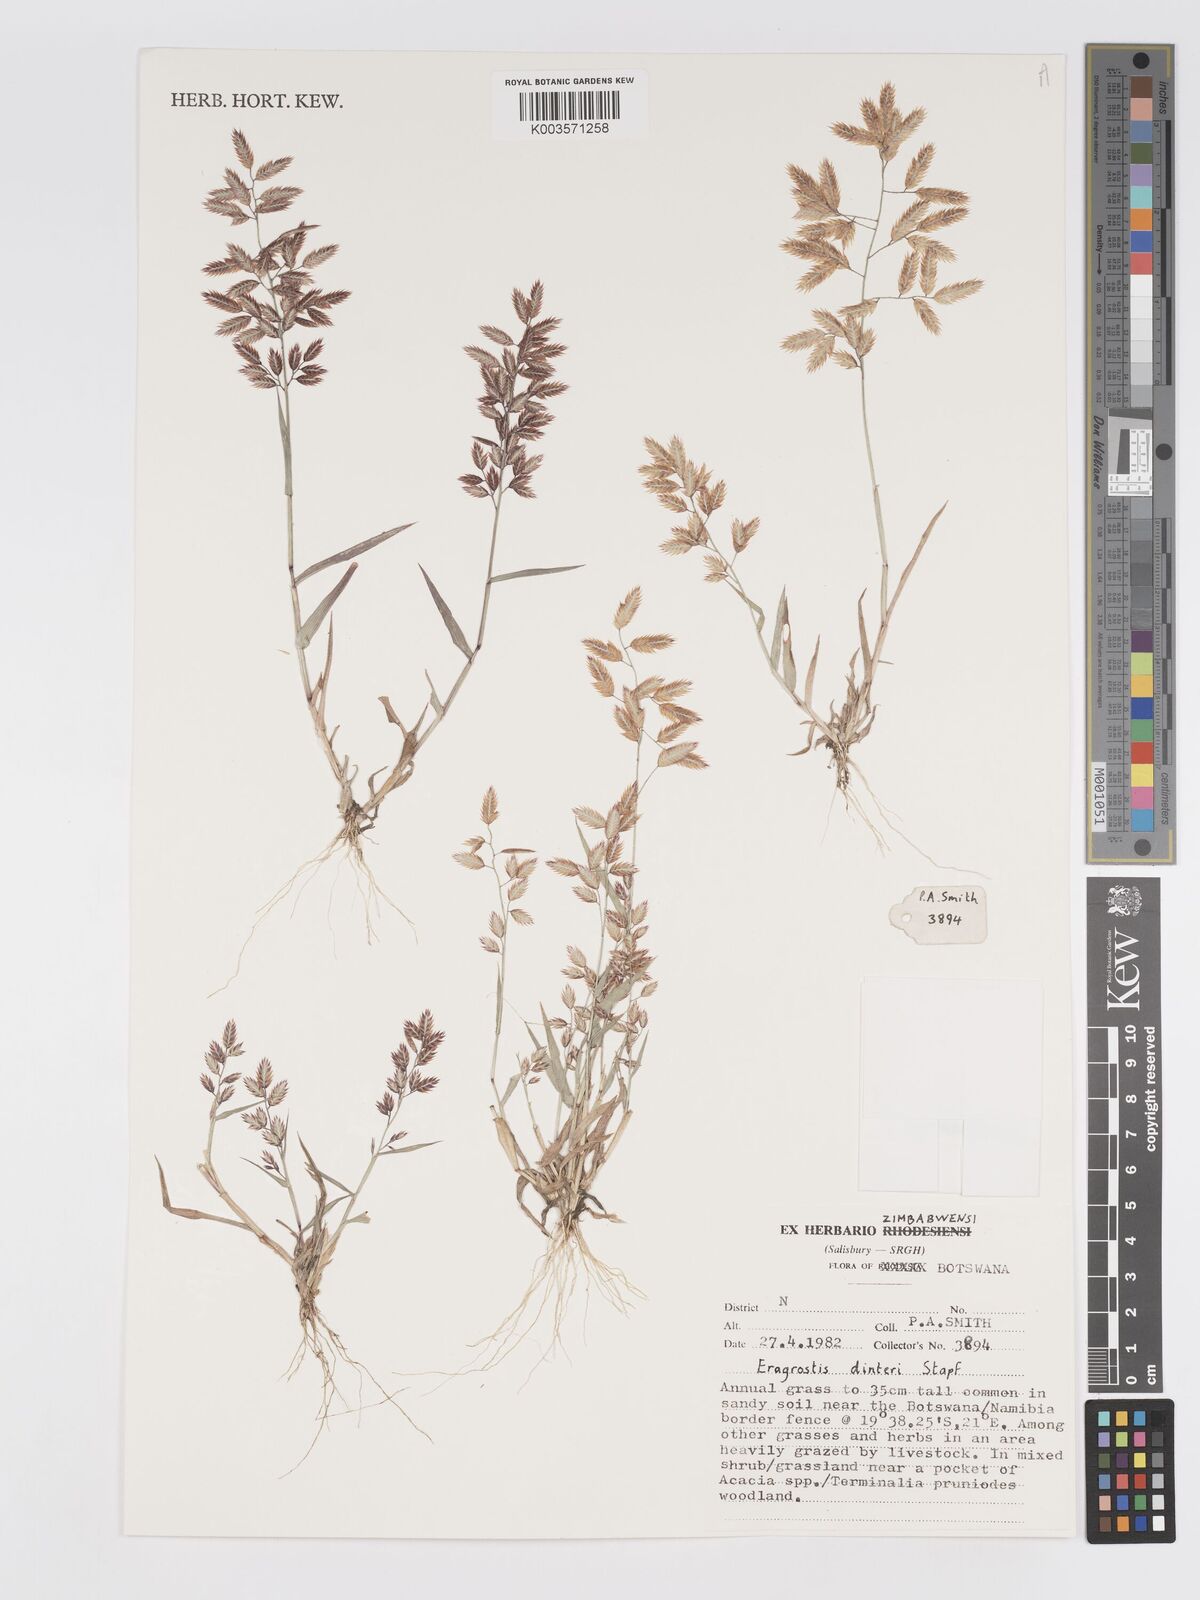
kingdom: Plantae
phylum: Tracheophyta
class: Liliopsida
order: Poales
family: Poaceae
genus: Eragrostis
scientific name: Eragrostis dinteri
